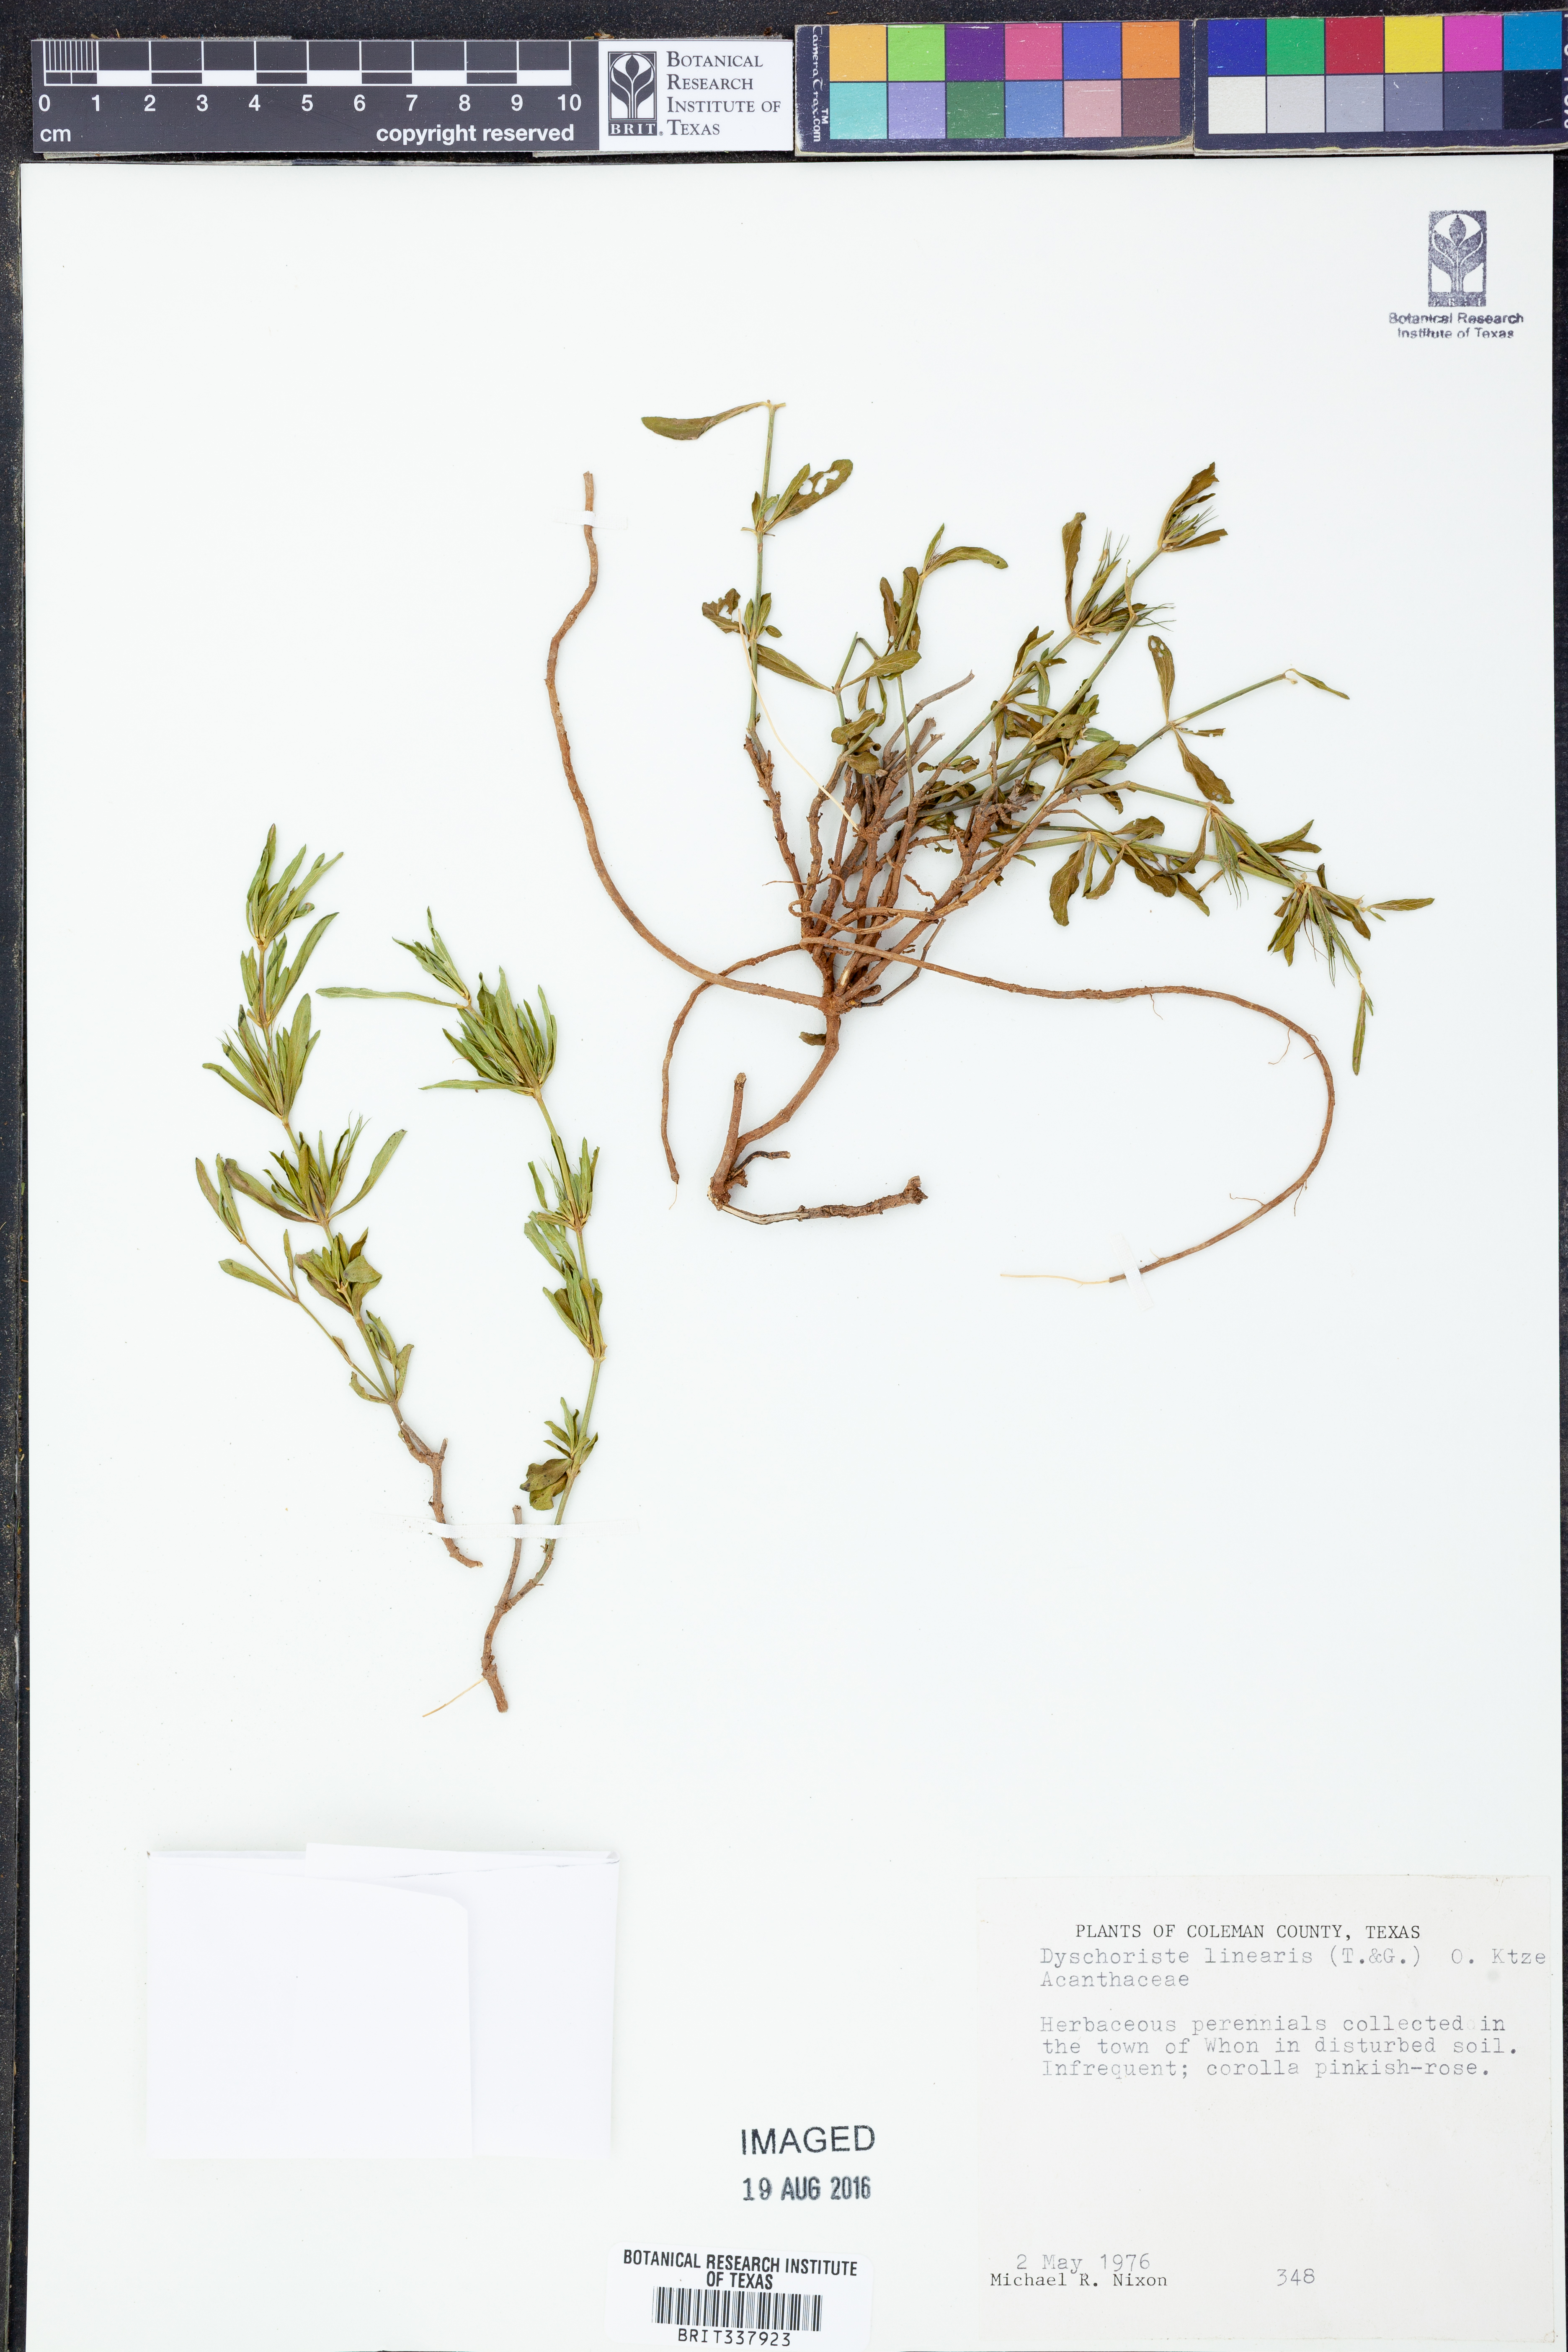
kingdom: Plantae
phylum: Tracheophyta
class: Magnoliopsida
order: Lamiales
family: Acanthaceae
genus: Dyschoriste
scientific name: Dyschoriste linearis
